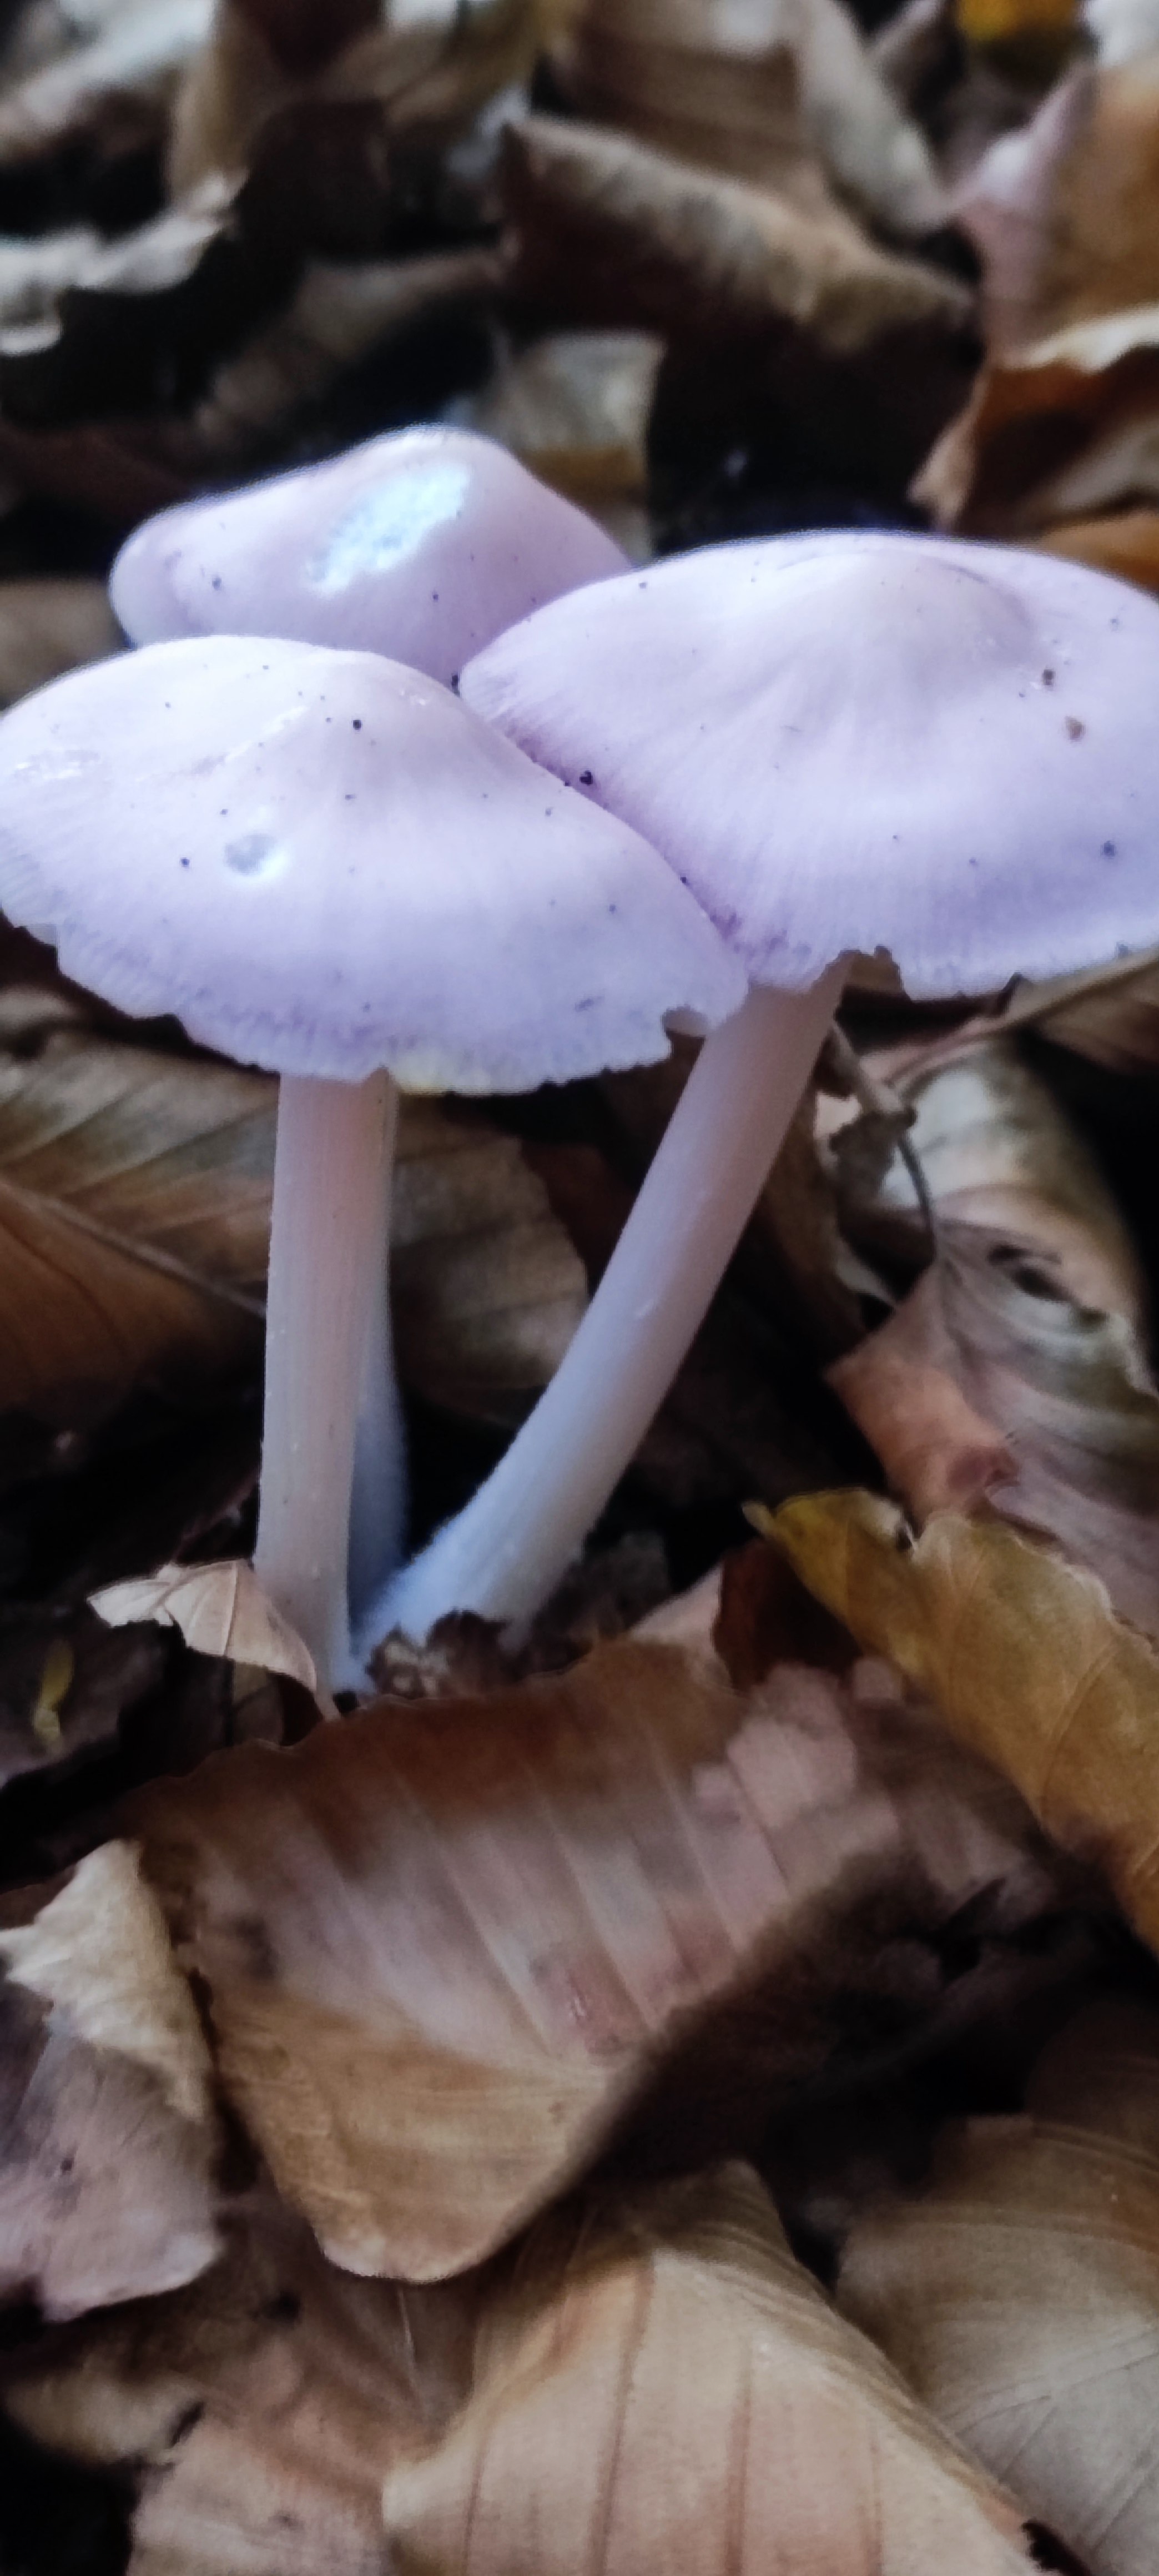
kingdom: Fungi
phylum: Basidiomycota
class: Agaricomycetes
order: Agaricales
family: Mycenaceae
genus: Mycena
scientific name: Mycena rosea
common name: rosa huesvamp
